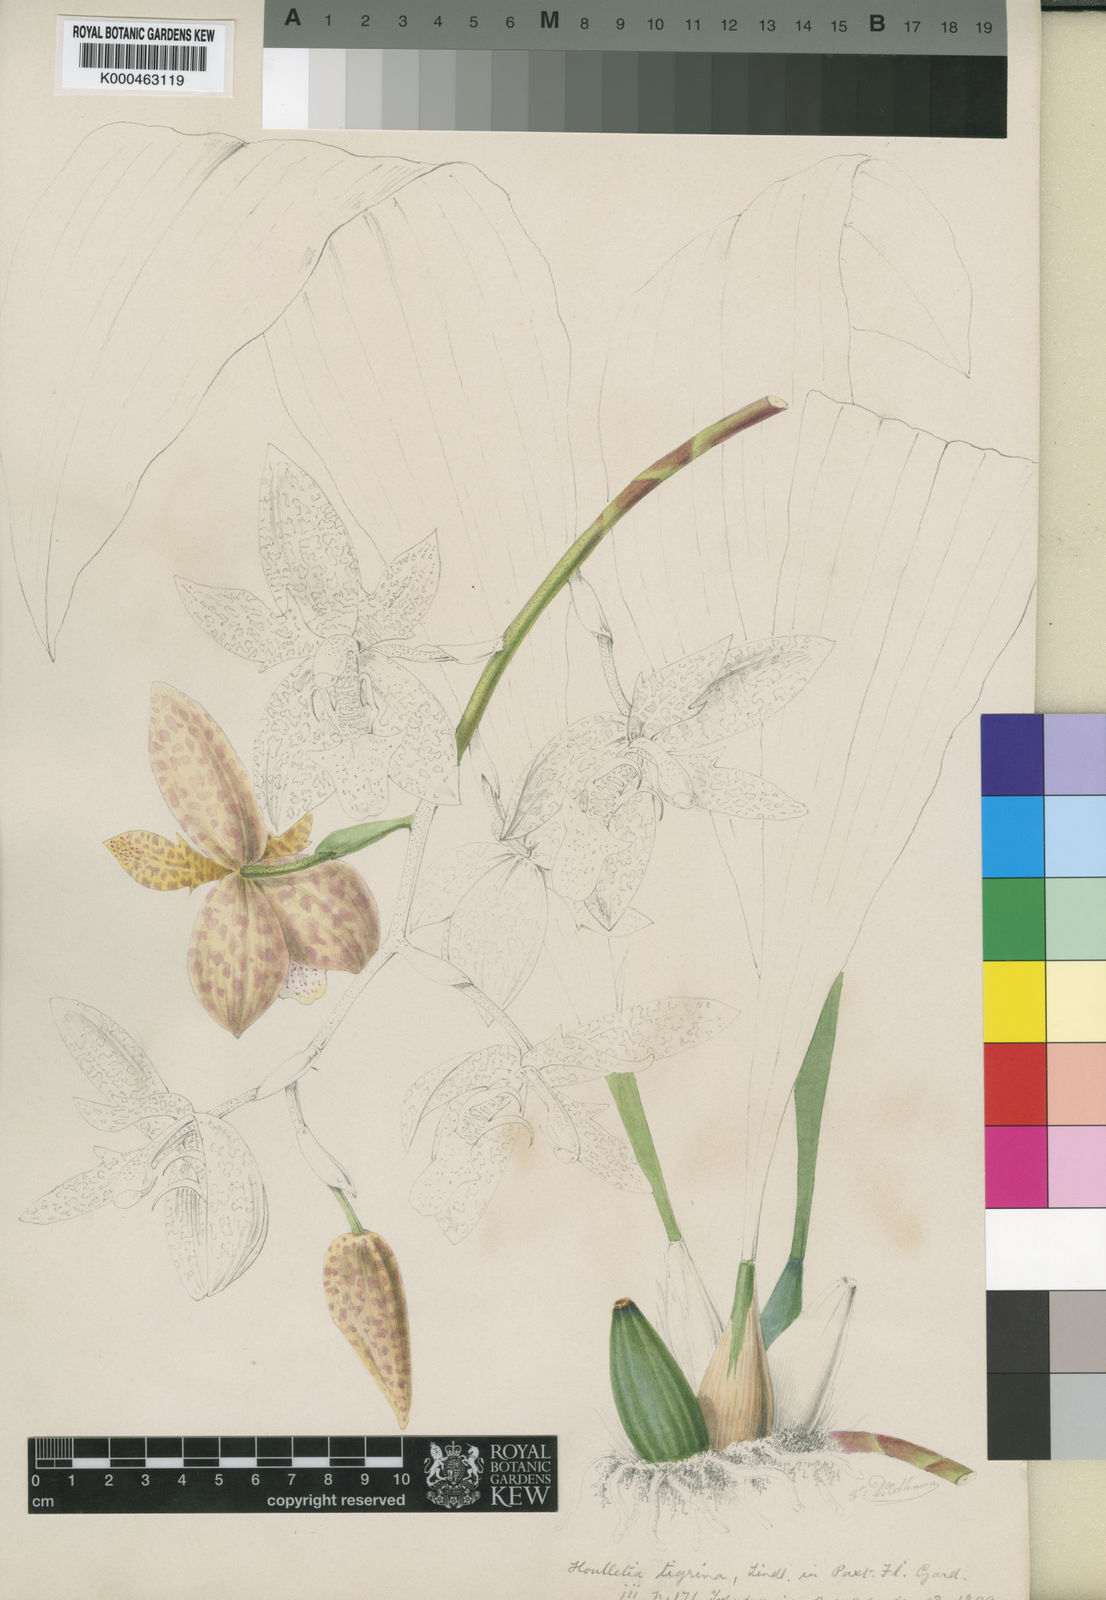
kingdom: Plantae
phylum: Tracheophyta
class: Liliopsida
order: Asparagales
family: Orchidaceae
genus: Houlletia
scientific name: Houlletia tigrina
